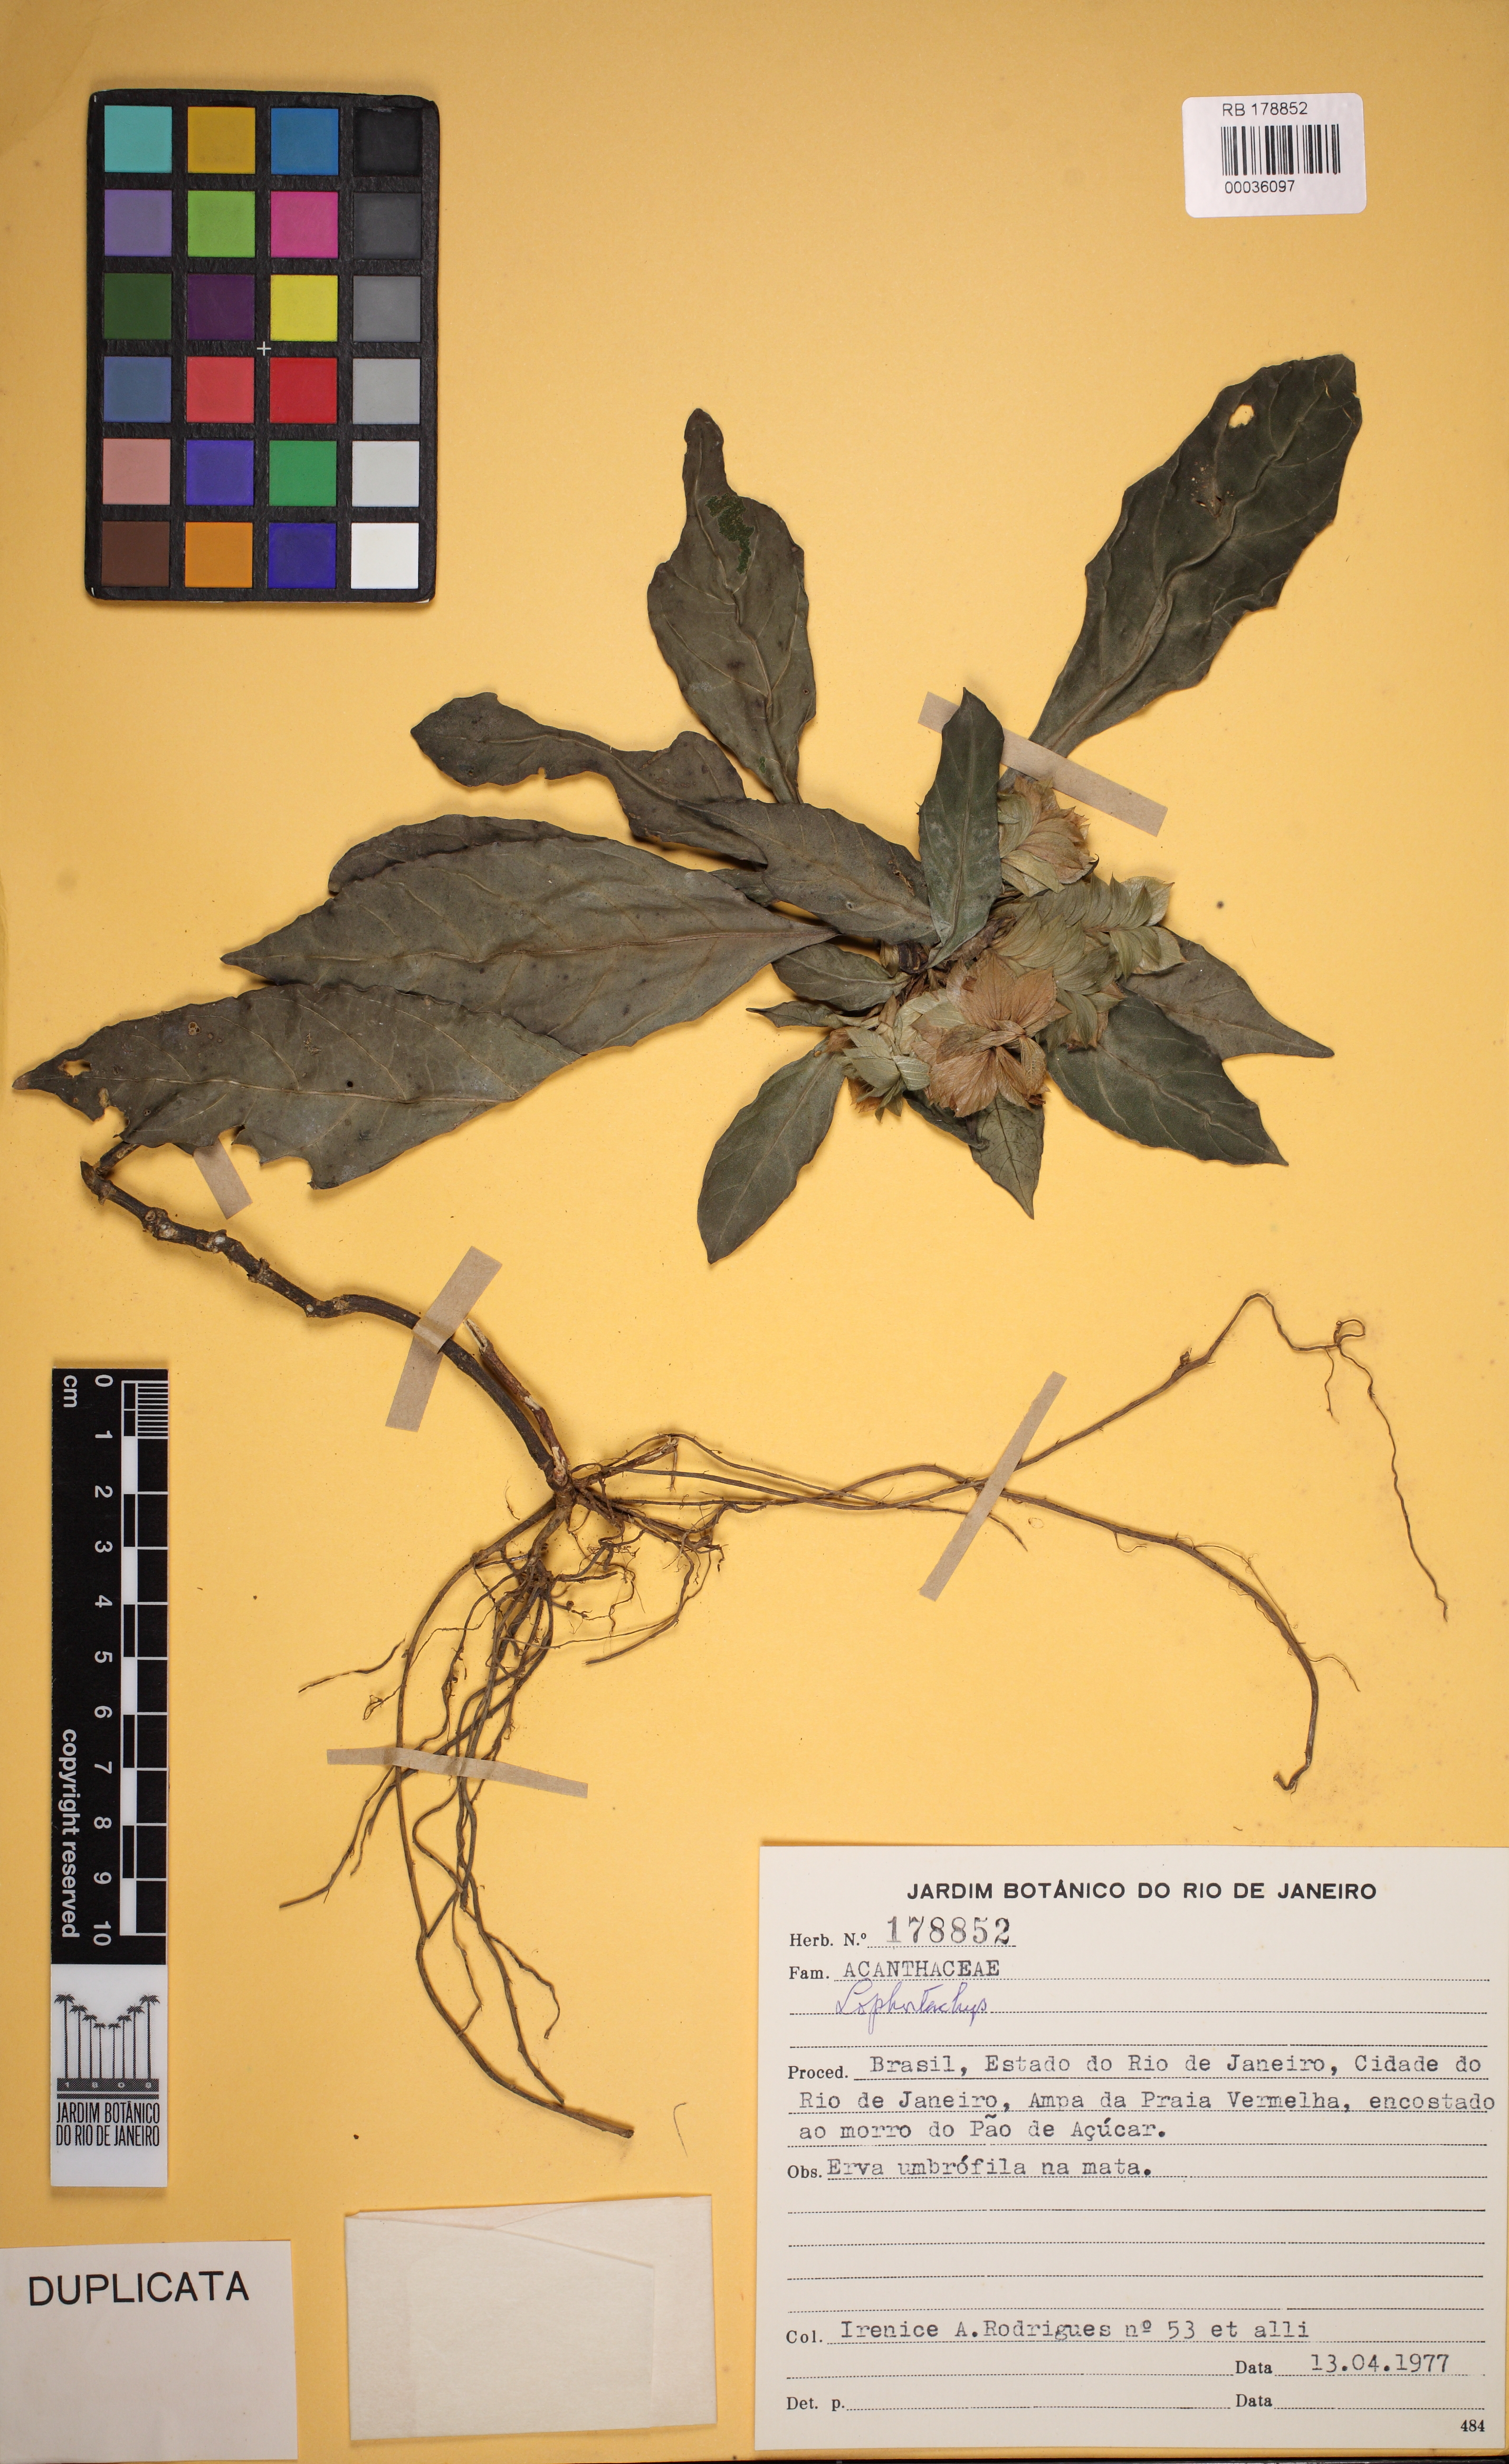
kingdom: Plantae
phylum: Tracheophyta
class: Magnoliopsida
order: Lamiales
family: Acanthaceae
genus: Lepidagathis
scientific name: Lepidagathis
